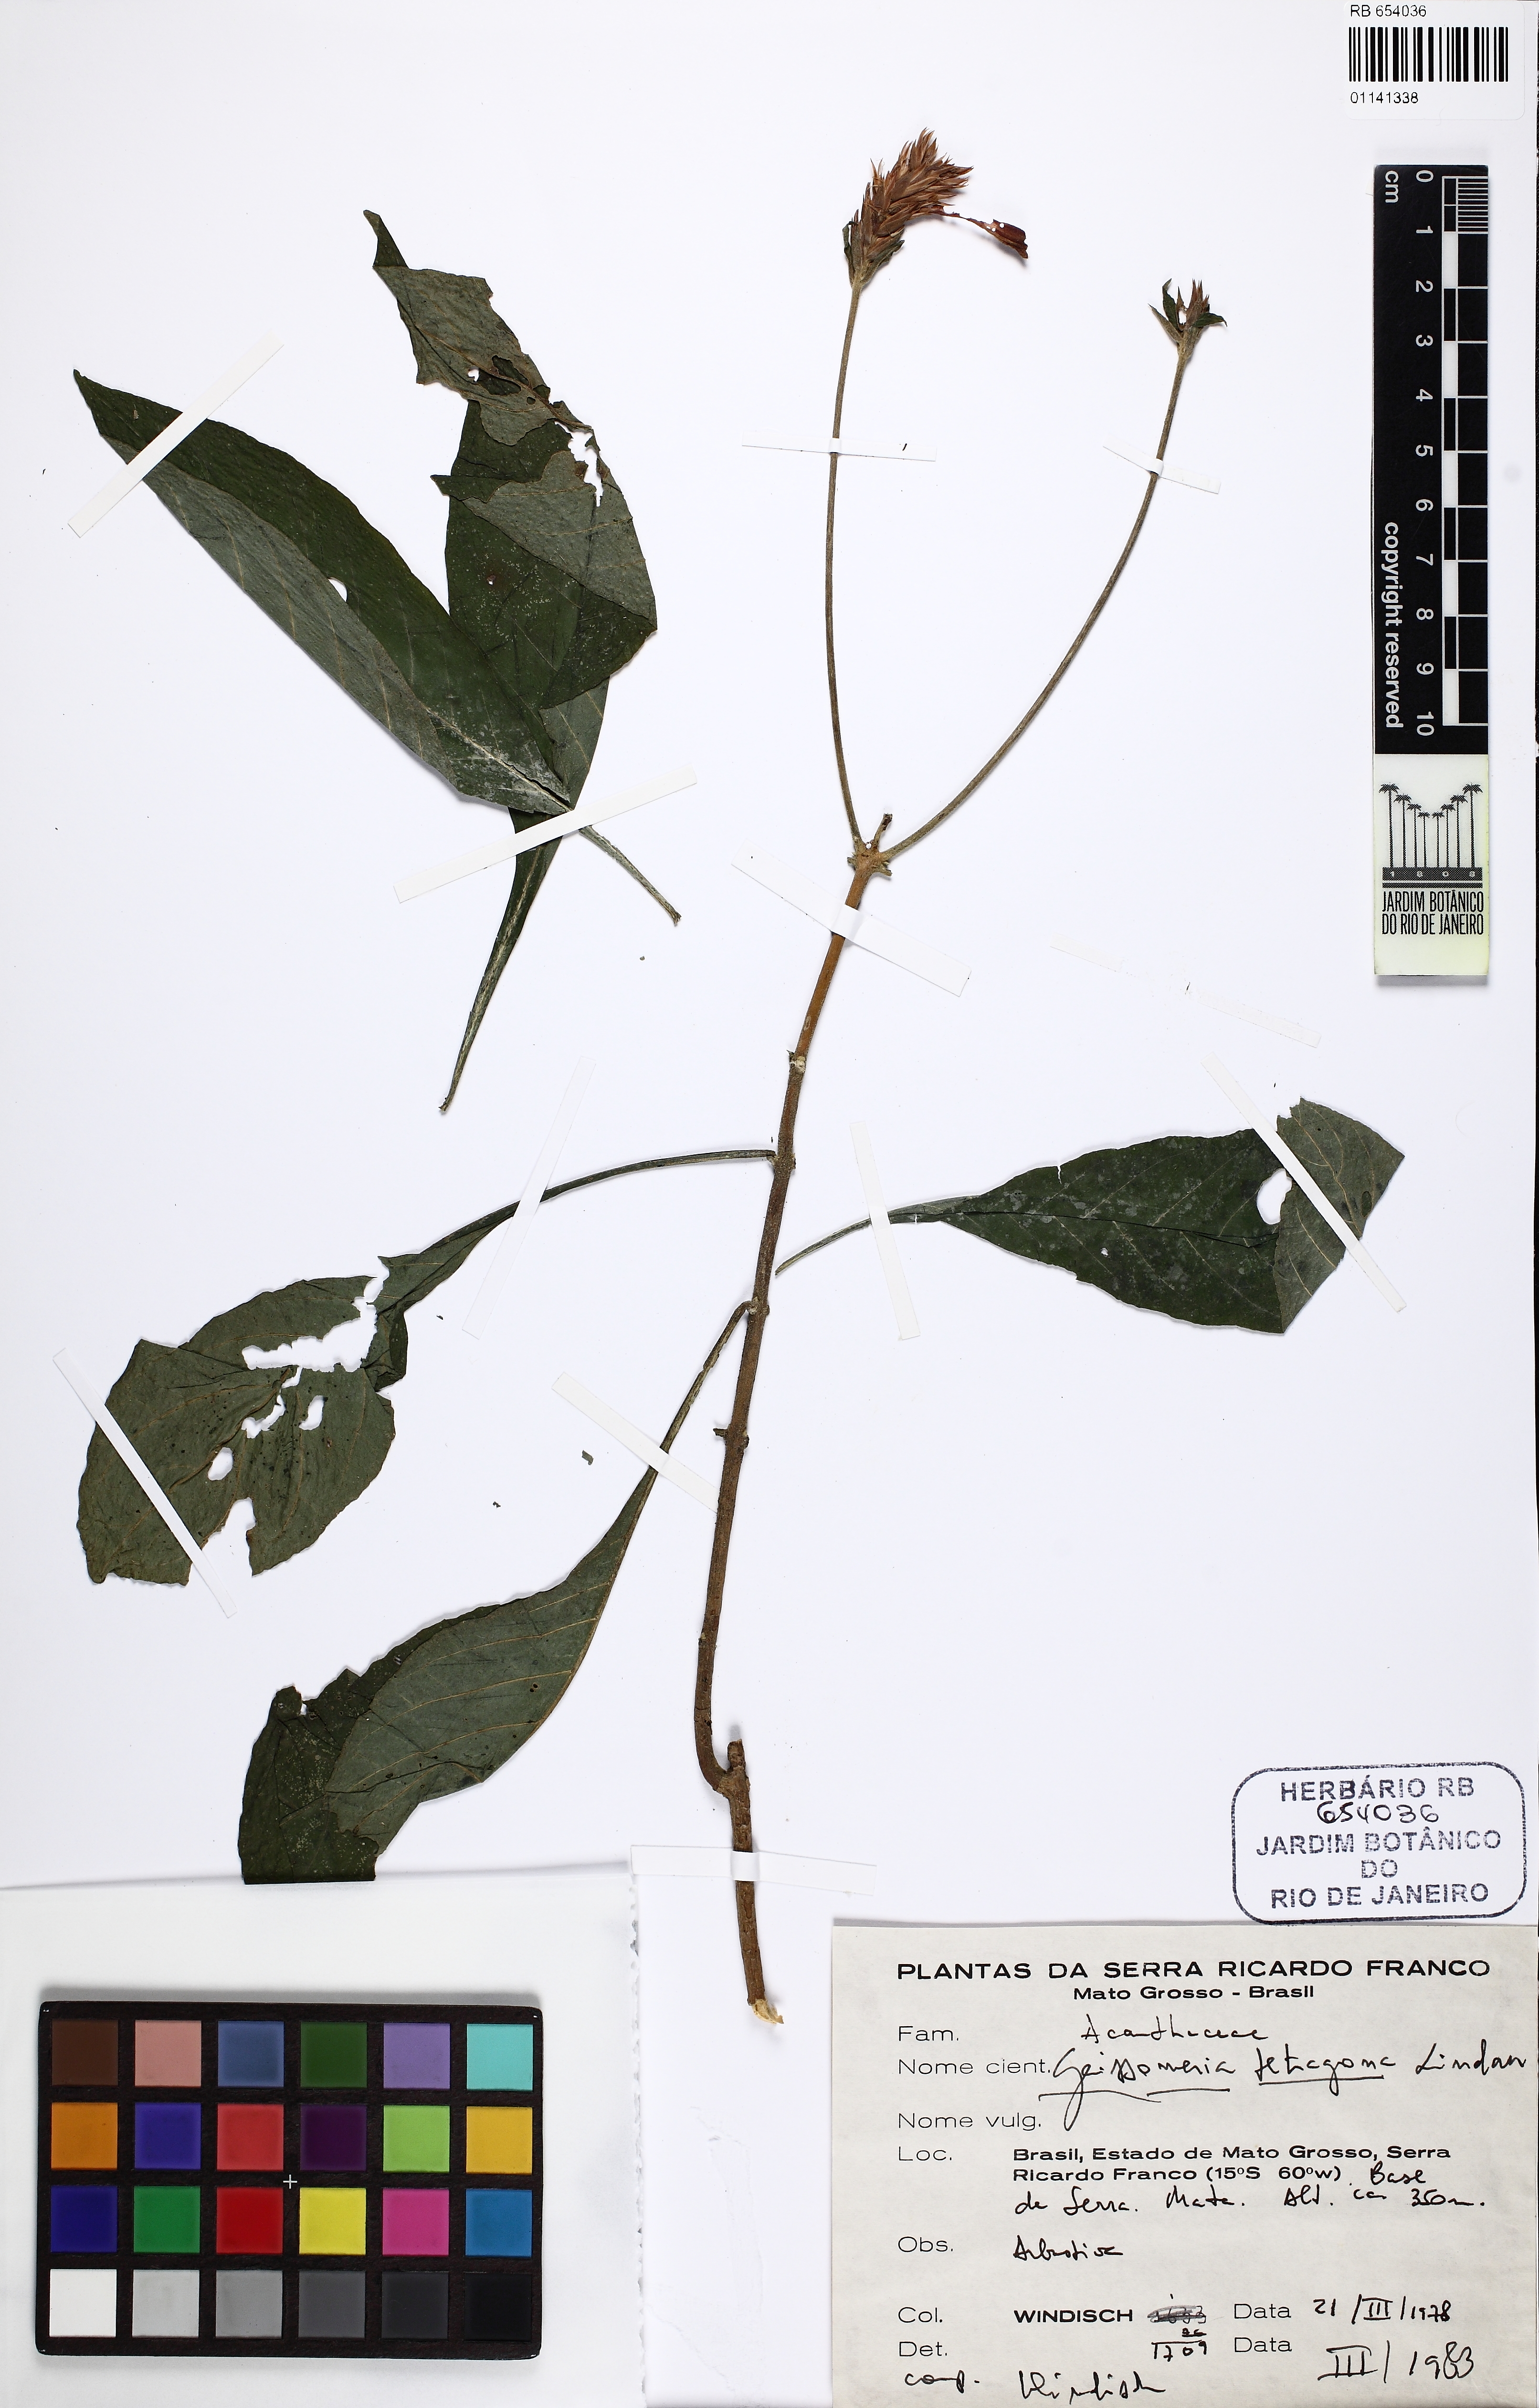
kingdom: Plantae
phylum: Tracheophyta
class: Magnoliopsida
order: Lamiales
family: Acanthaceae
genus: Aphelandra
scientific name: Aphelandra longiflora
